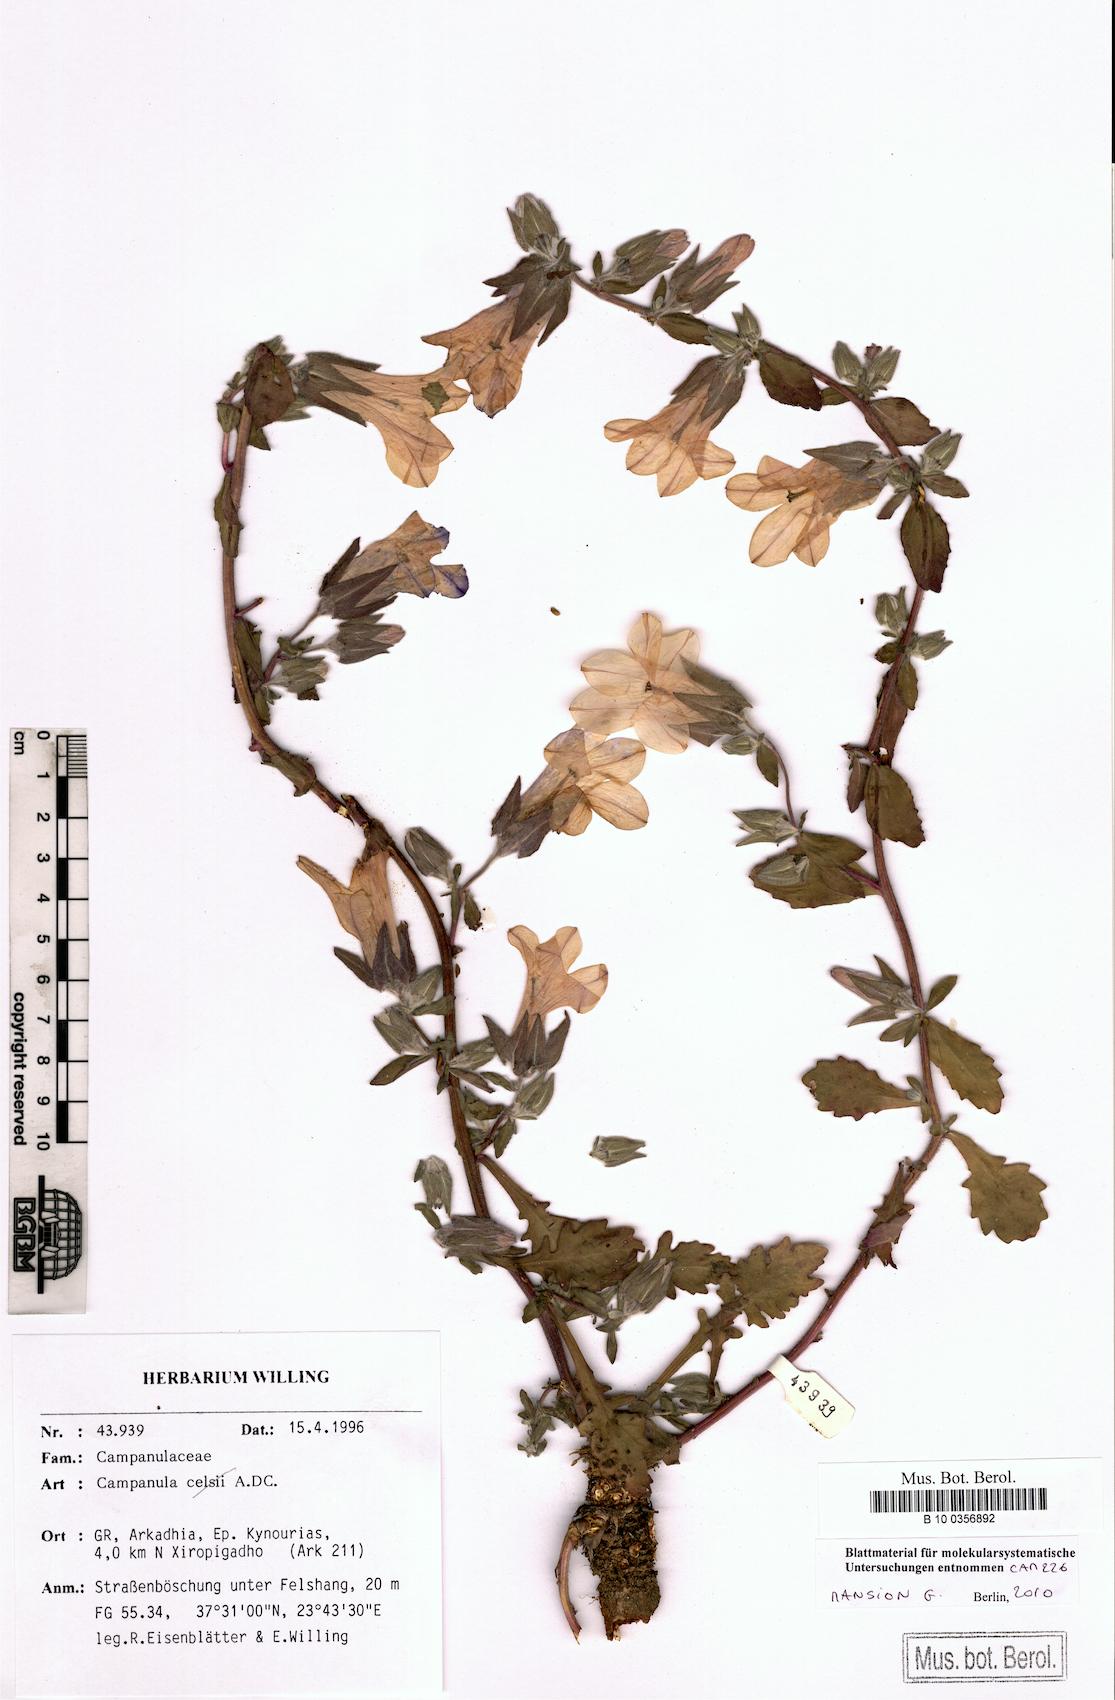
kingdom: Plantae
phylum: Tracheophyta
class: Magnoliopsida
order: Asterales
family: Campanulaceae
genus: Campanula
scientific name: Campanula celsii
